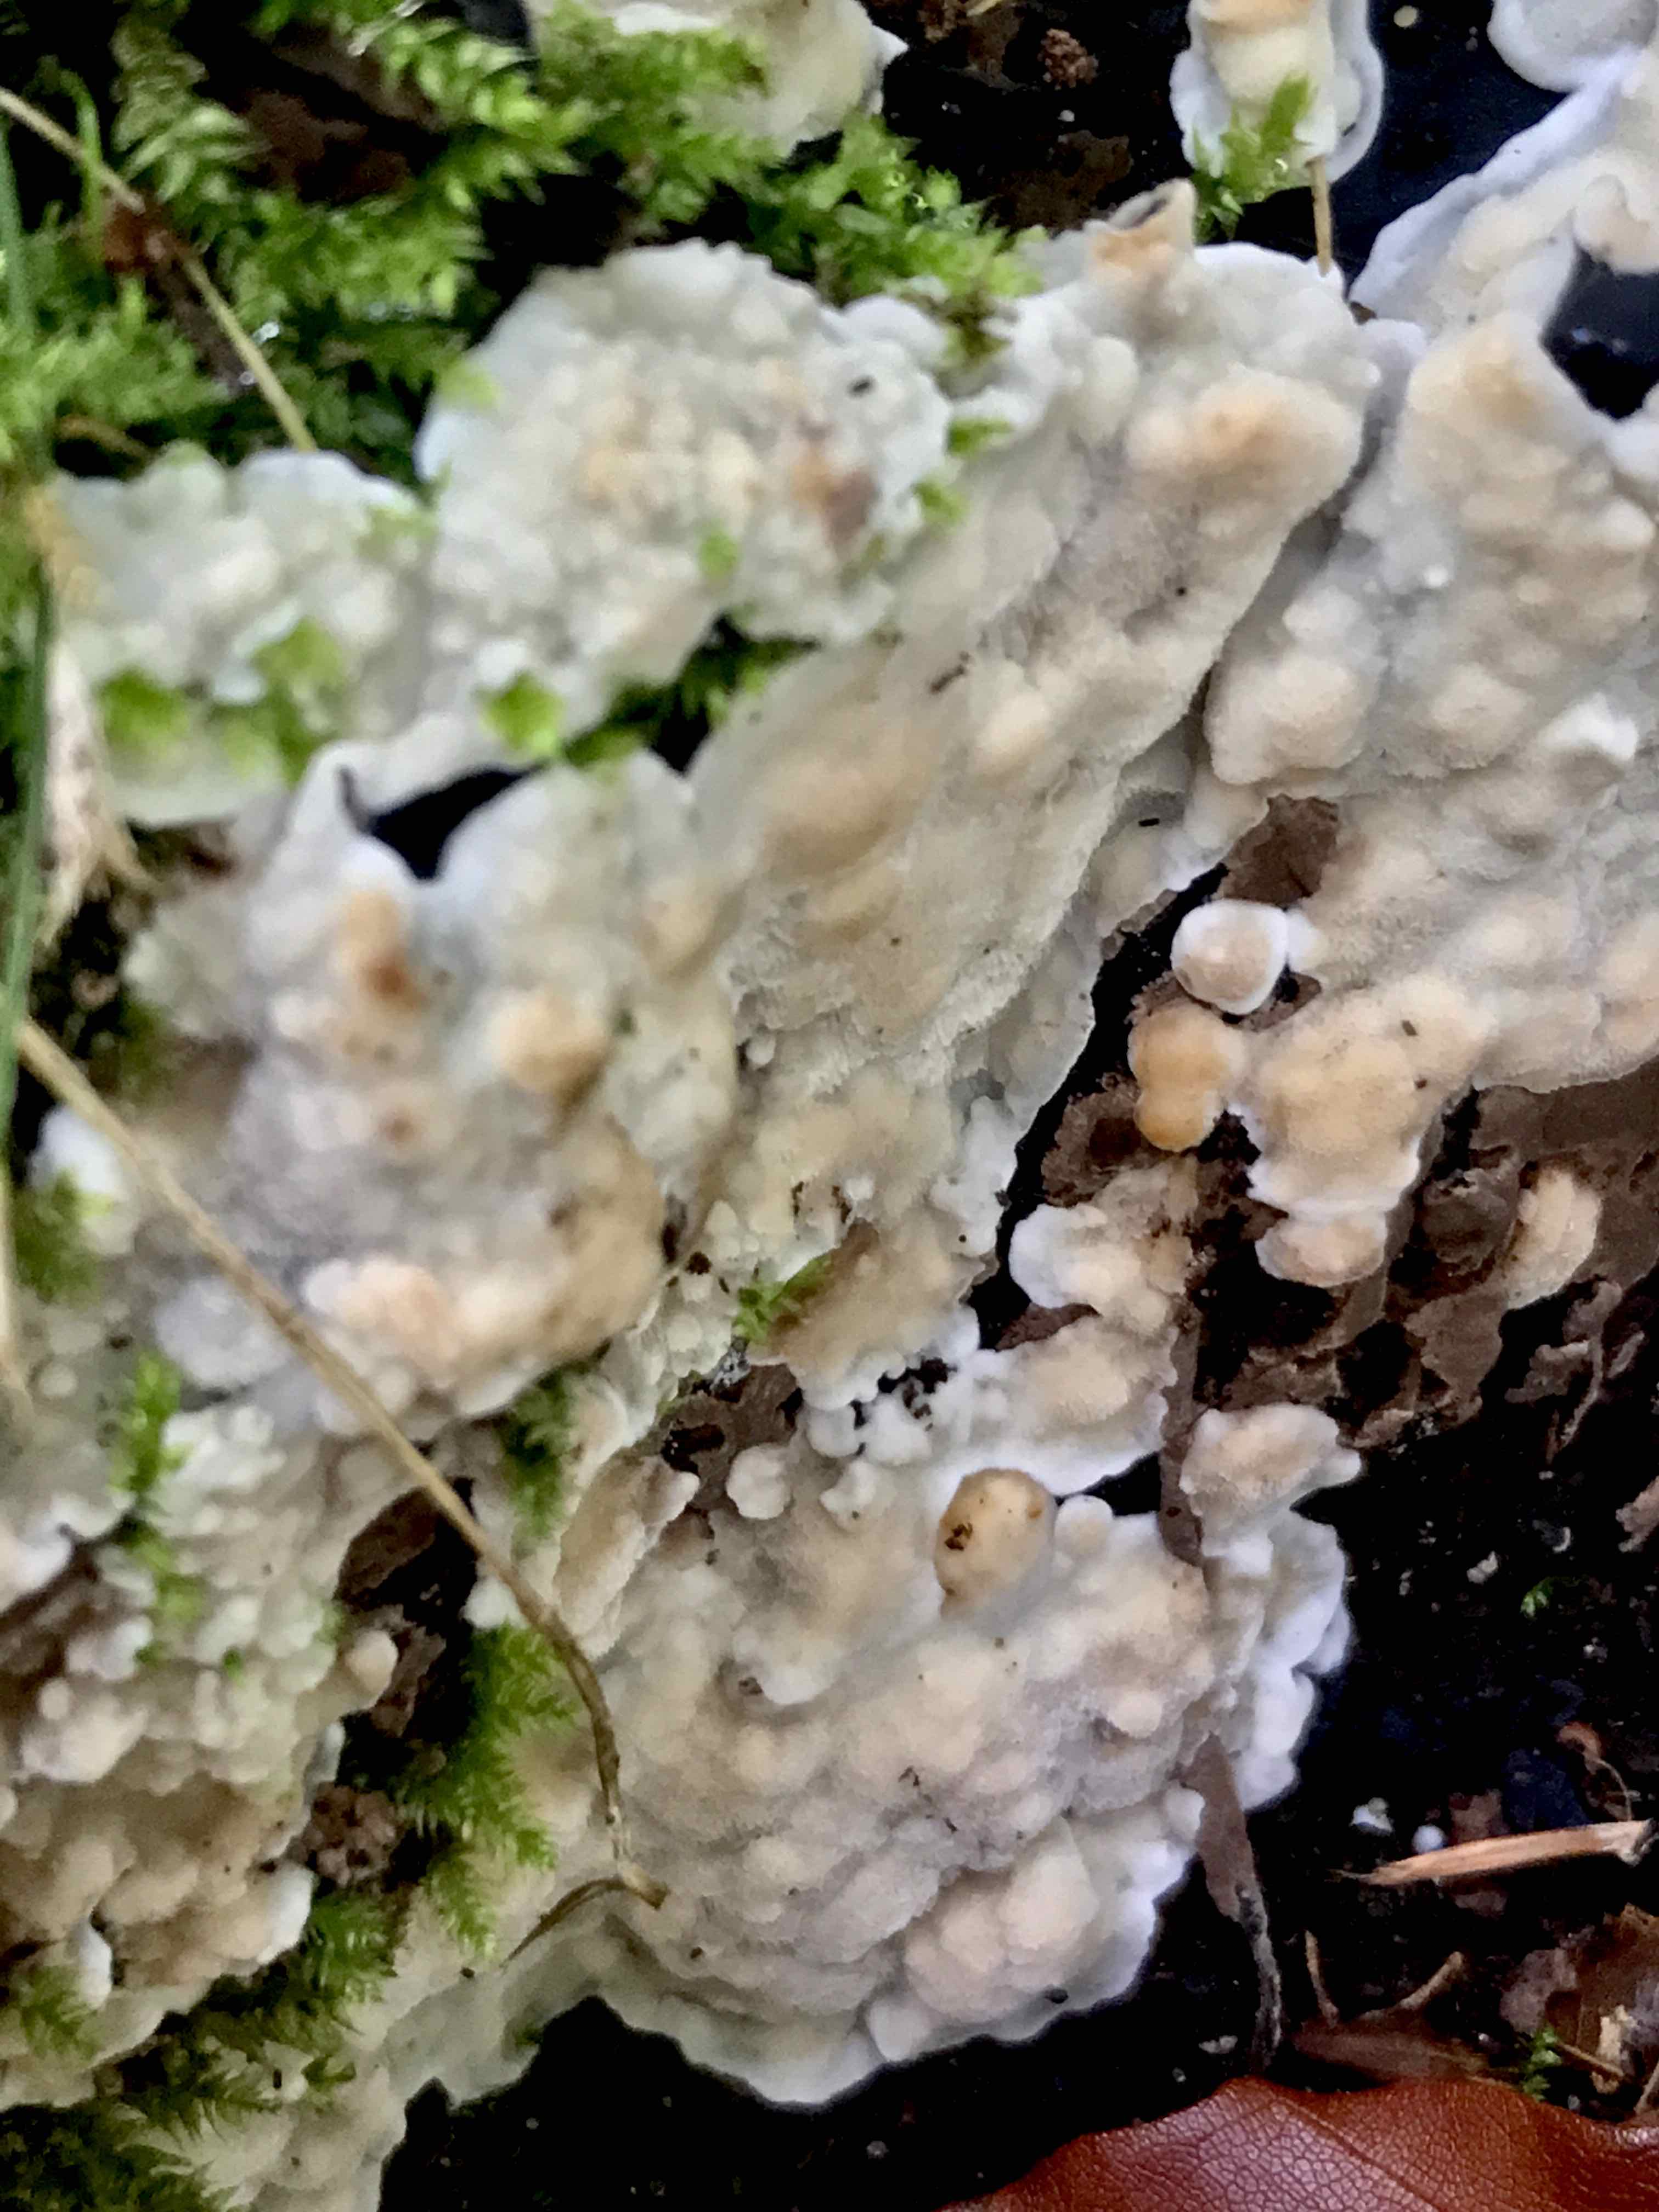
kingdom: Fungi
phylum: Basidiomycota
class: Agaricomycetes
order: Polyporales
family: Meruliaceae
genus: Physisporinus
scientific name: Physisporinus vitreus
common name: mastesvamp
